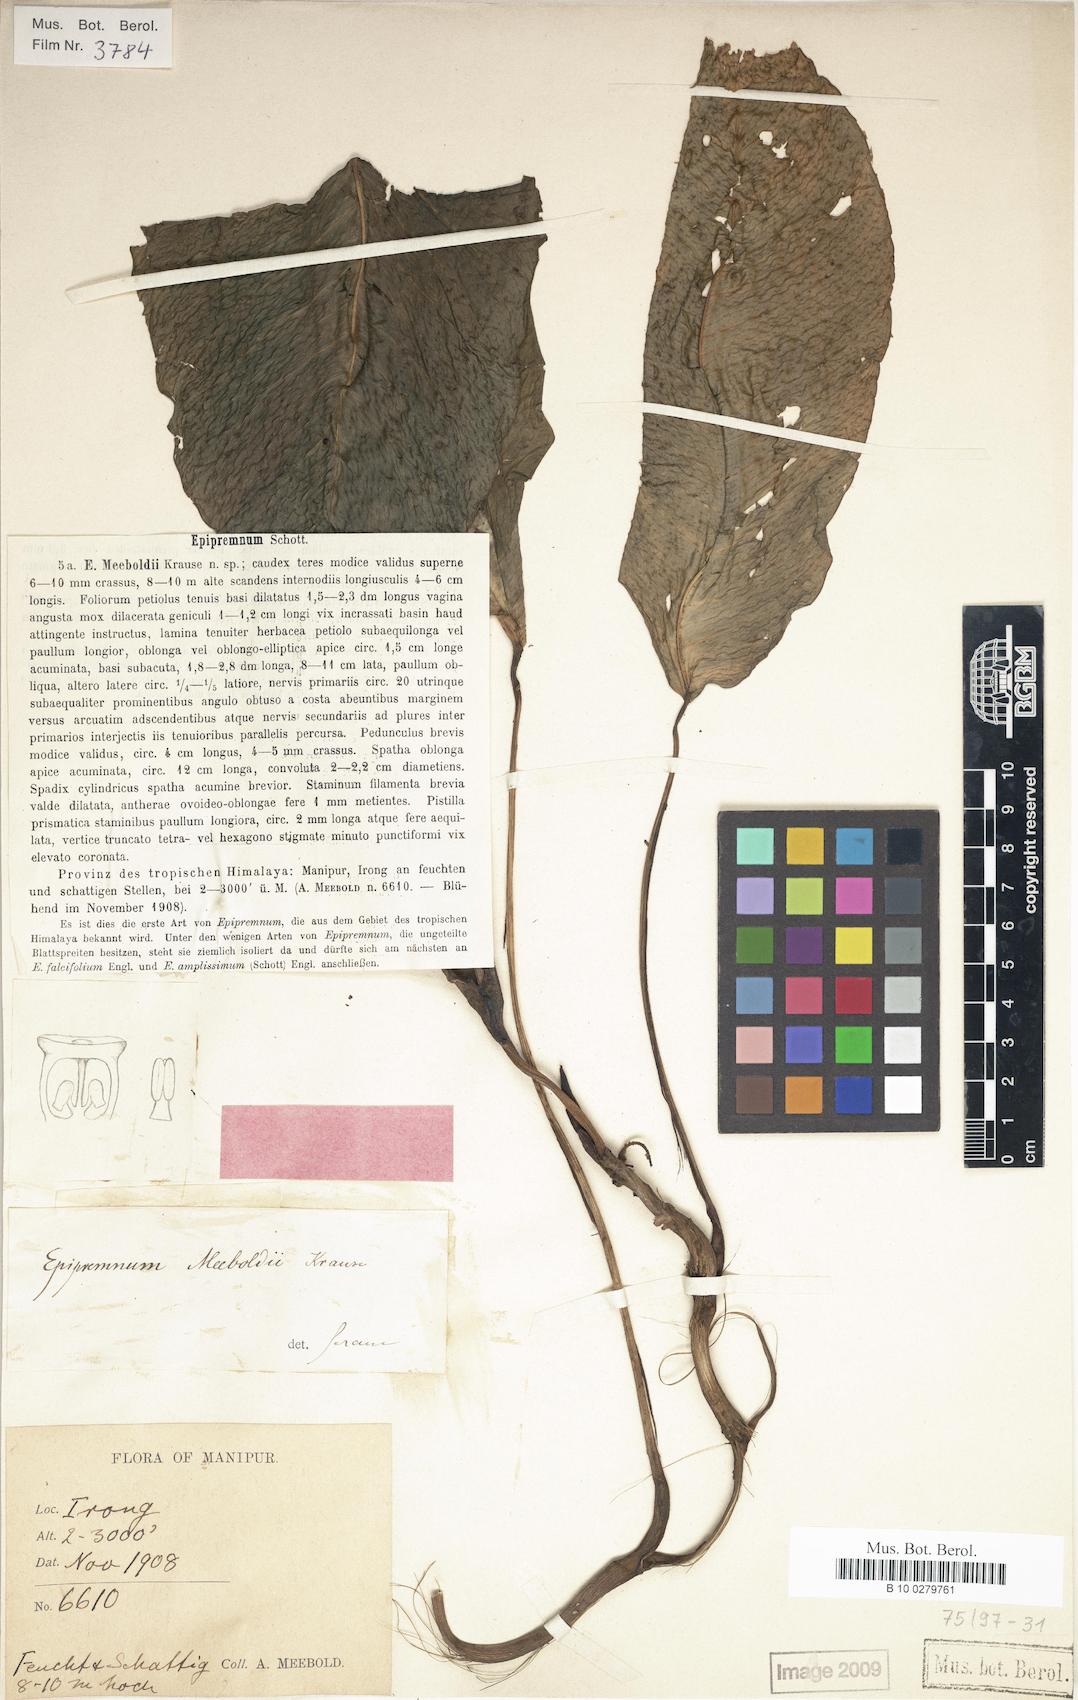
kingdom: Plantae
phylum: Tracheophyta
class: Liliopsida
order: Alismatales
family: Araceae
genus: Epipremnum
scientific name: Epipremnum meeboldii
